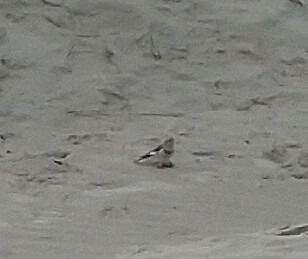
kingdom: Animalia
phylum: Chordata
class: Aves
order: Passeriformes
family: Calcariidae
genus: Plectrophenax
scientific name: Plectrophenax nivalis
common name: Snespurv
